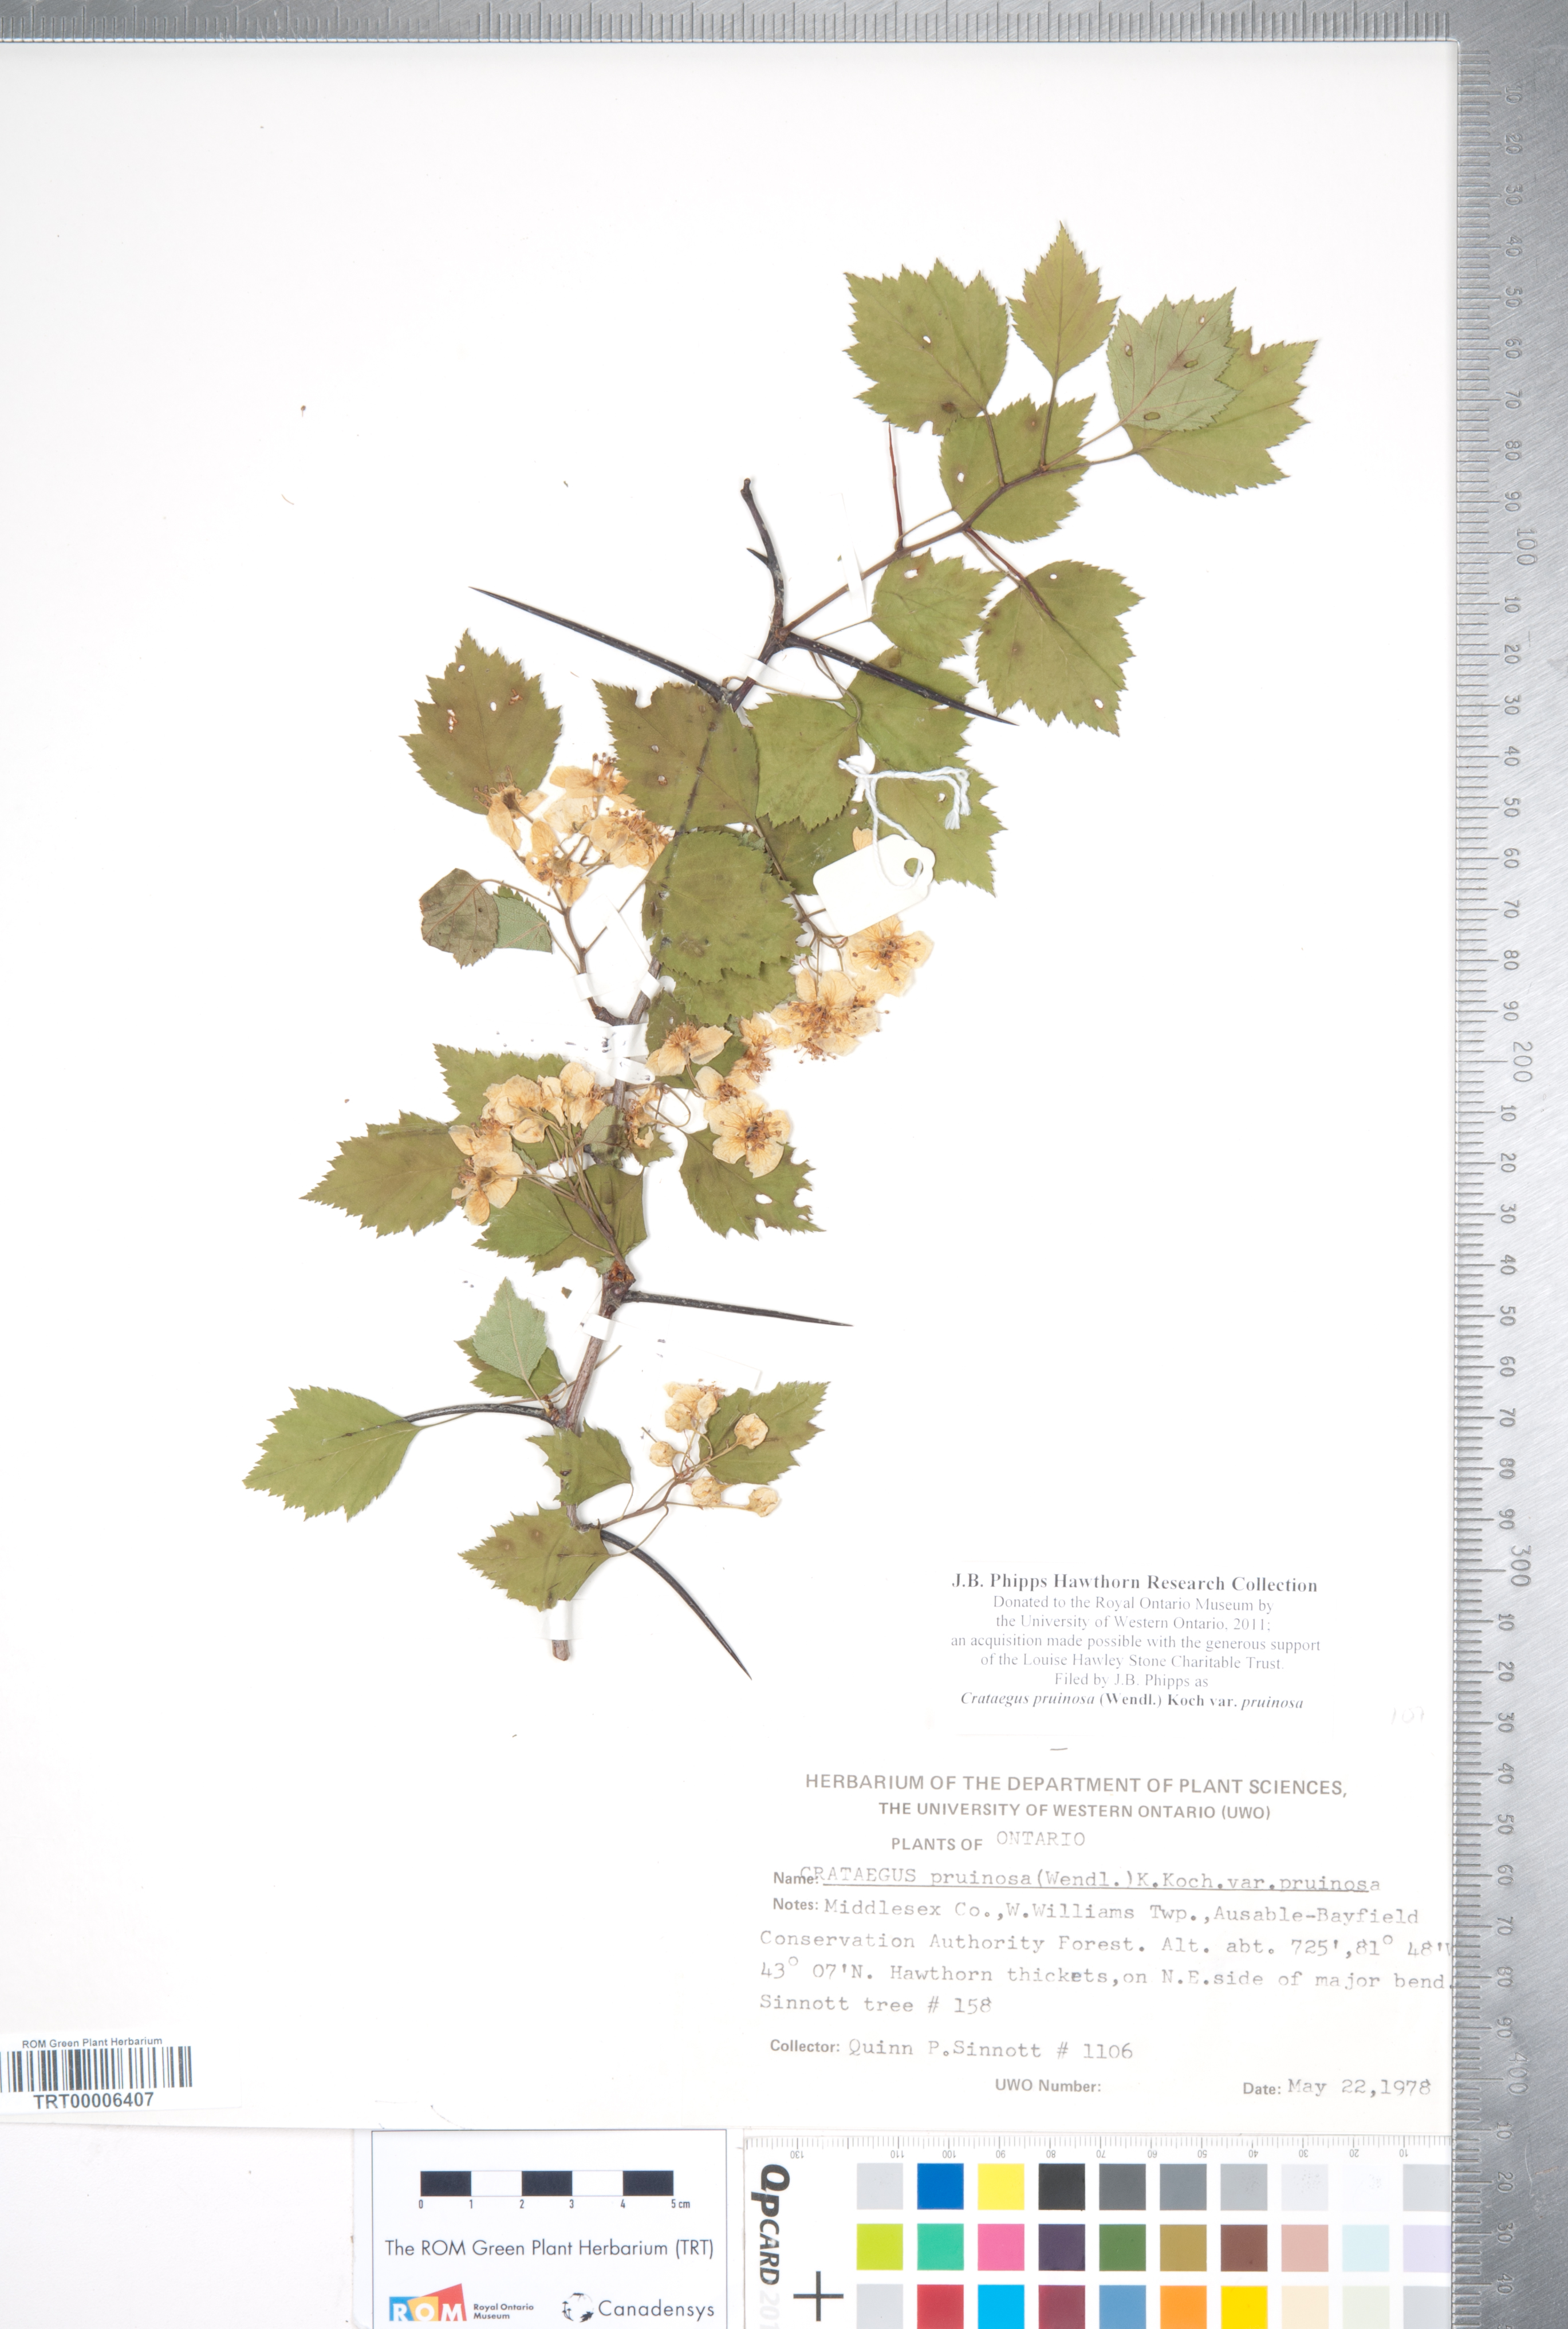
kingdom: Plantae
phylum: Tracheophyta
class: Magnoliopsida
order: Rosales
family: Rosaceae
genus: Crataegus
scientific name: Crataegus pruinosa
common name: Waxy-fruit hawthorn
